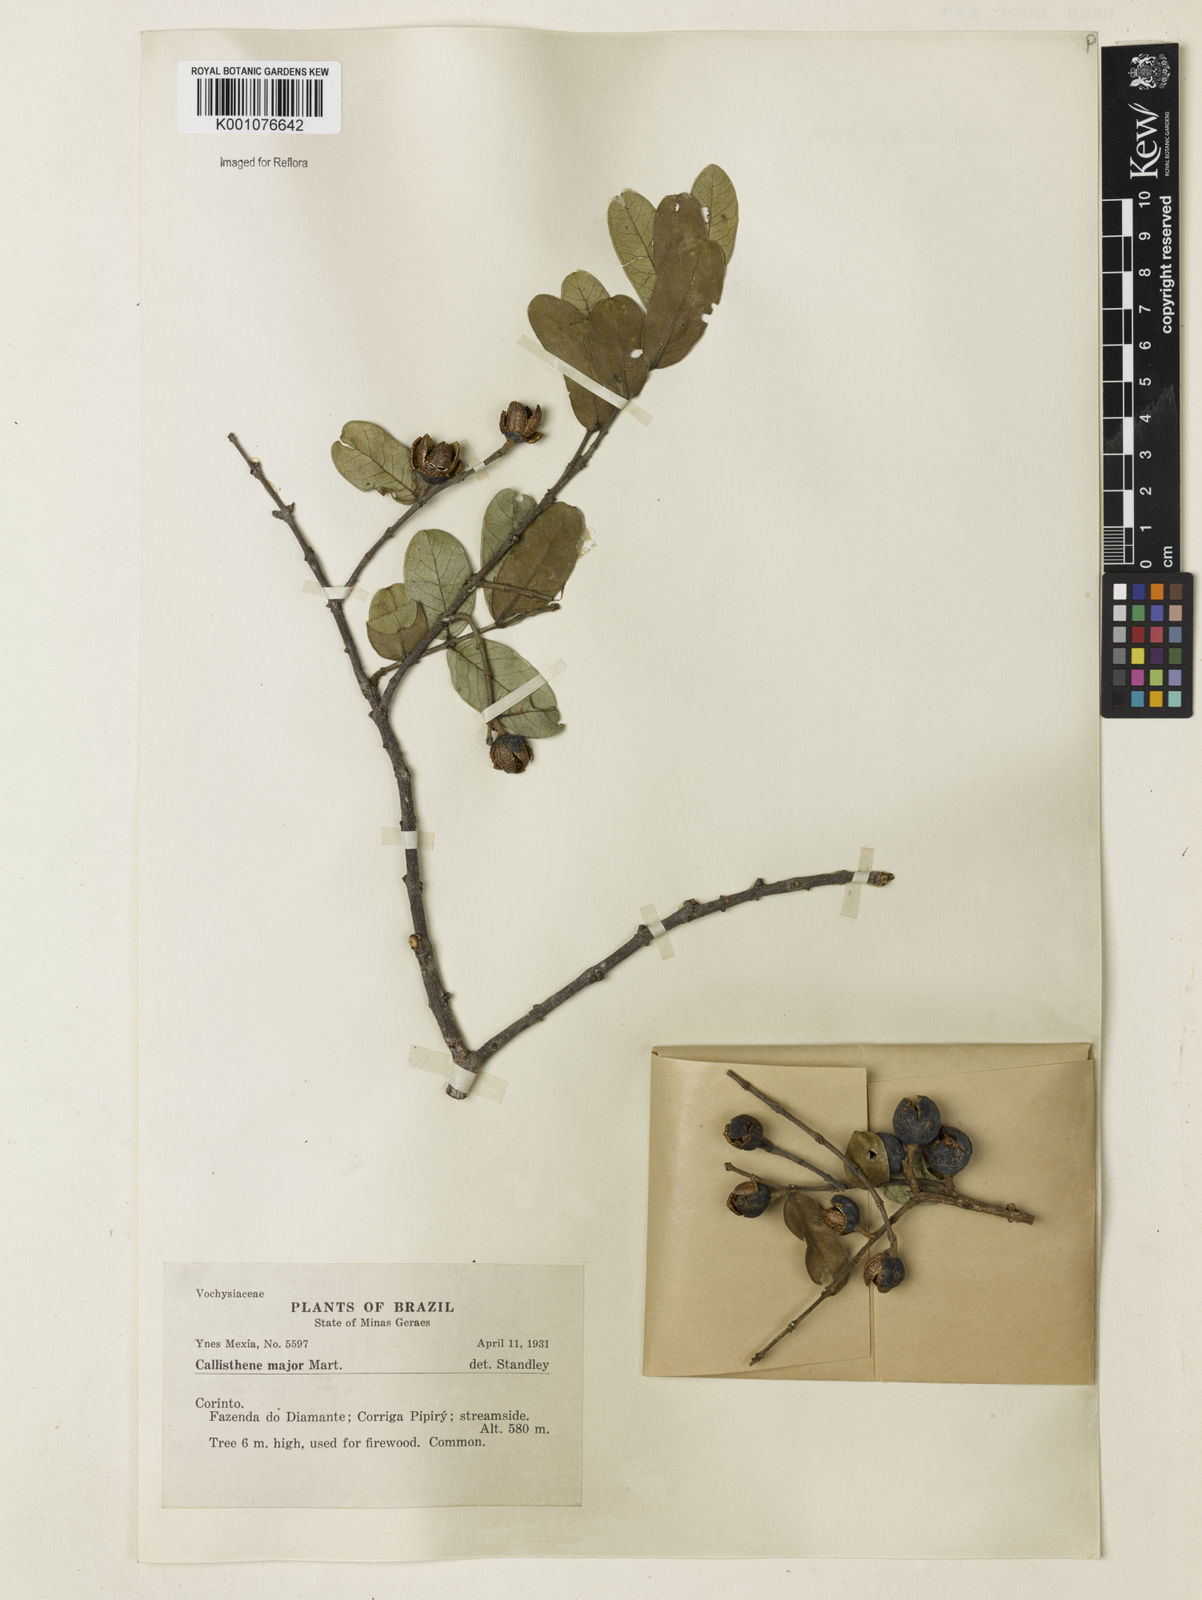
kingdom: Plantae
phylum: Tracheophyta
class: Magnoliopsida
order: Myrtales
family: Vochysiaceae
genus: Callisthene
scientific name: Callisthene major
